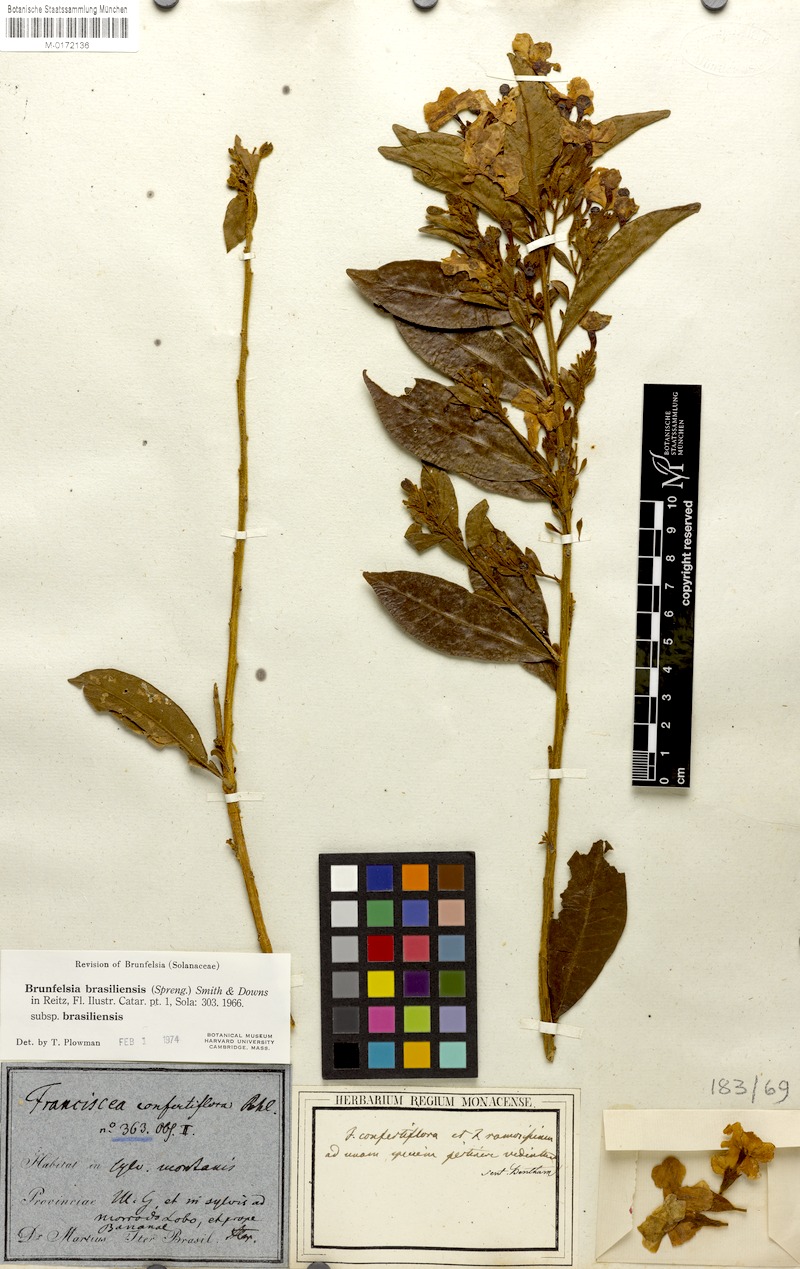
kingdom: Plantae
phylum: Tracheophyta
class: Magnoliopsida
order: Solanales
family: Solanaceae
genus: Brunfelsia
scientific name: Brunfelsia brasiliensis
